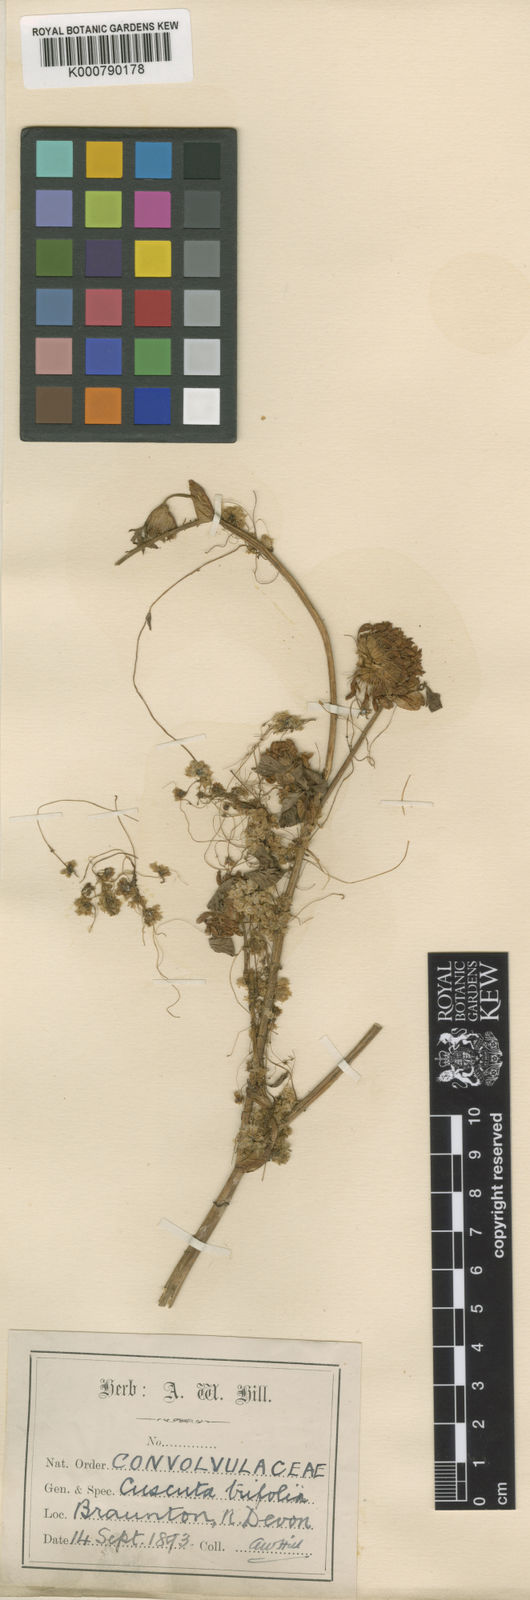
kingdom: Plantae
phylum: Tracheophyta
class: Magnoliopsida
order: Solanales
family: Convolvulaceae
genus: Cuscuta
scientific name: Cuscuta epithymum
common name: Clover dodder
